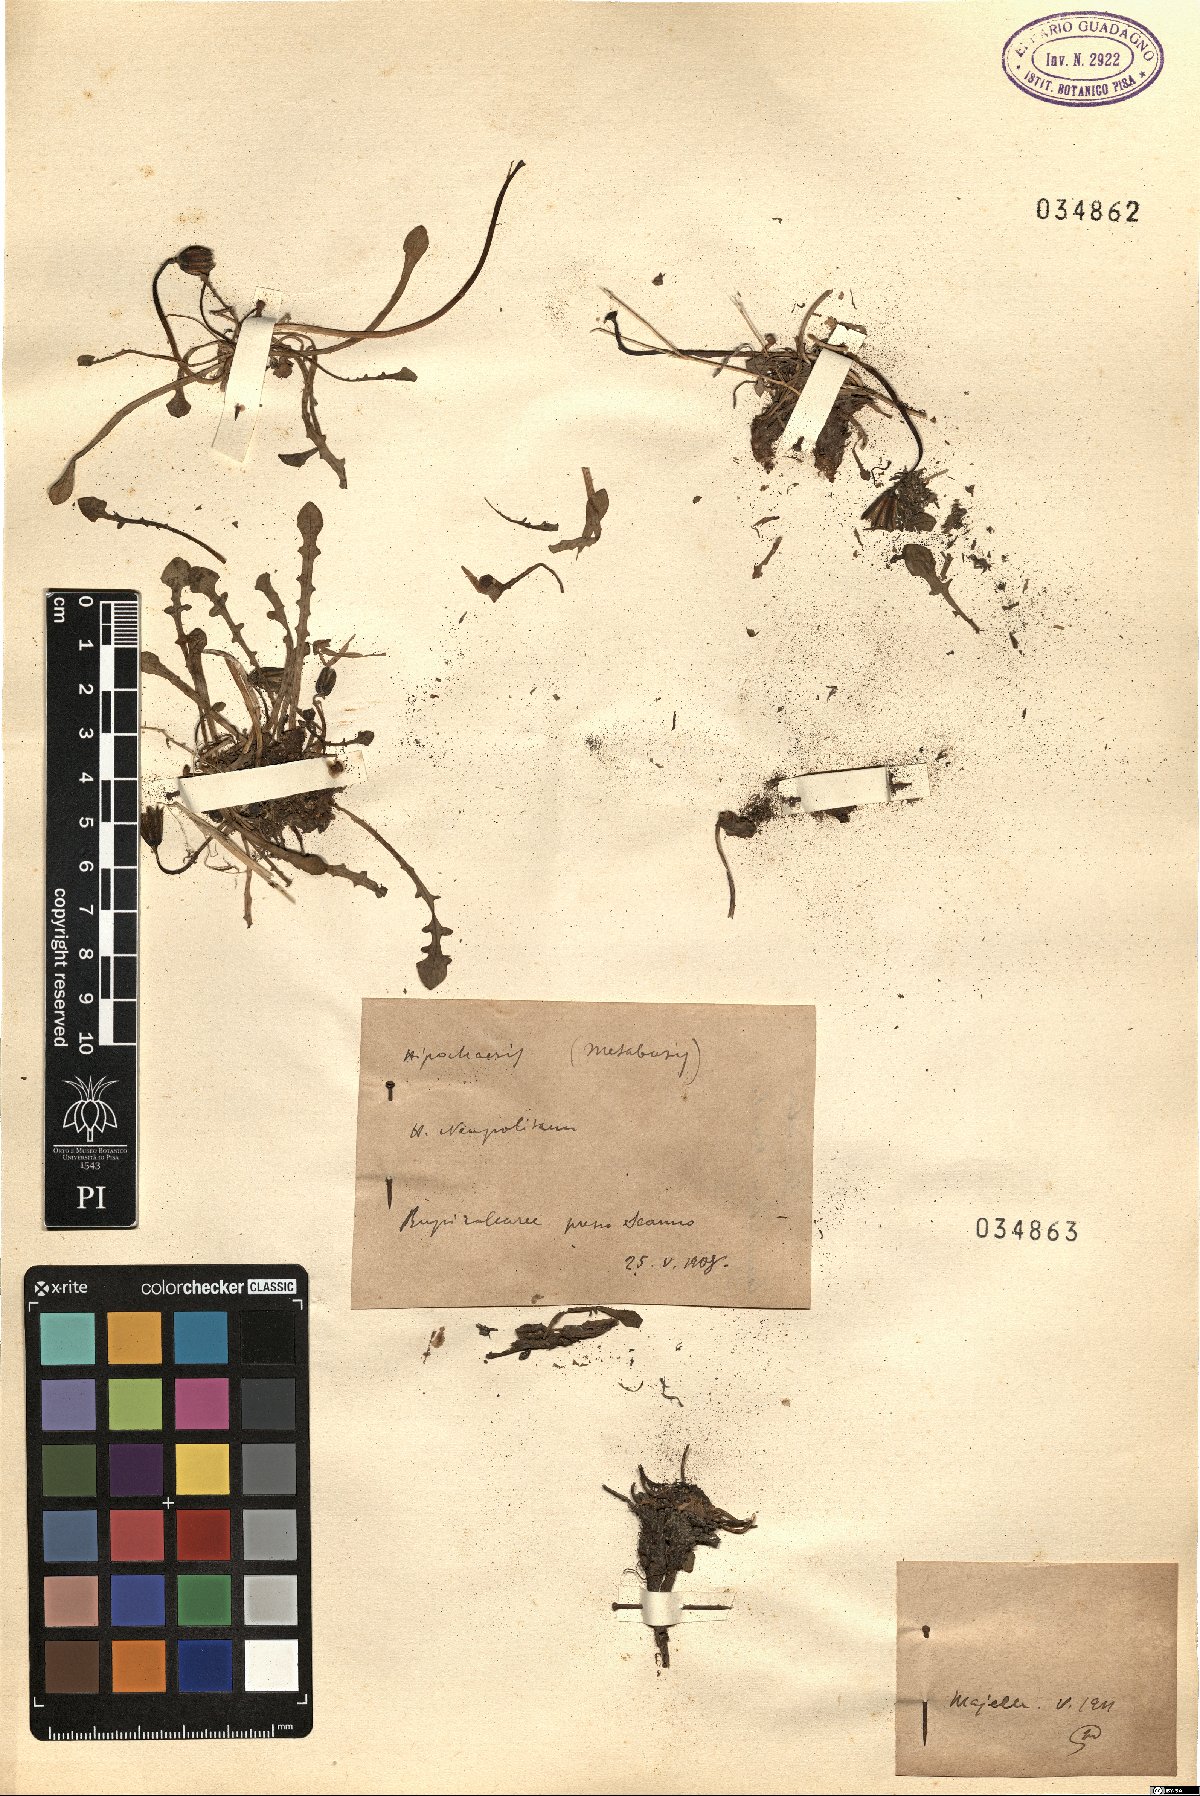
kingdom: Plantae
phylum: Tracheophyta
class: Magnoliopsida
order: Asterales
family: Asteraceae
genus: Hypochaeris
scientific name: Hypochaeris radicata
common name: Flatweed
